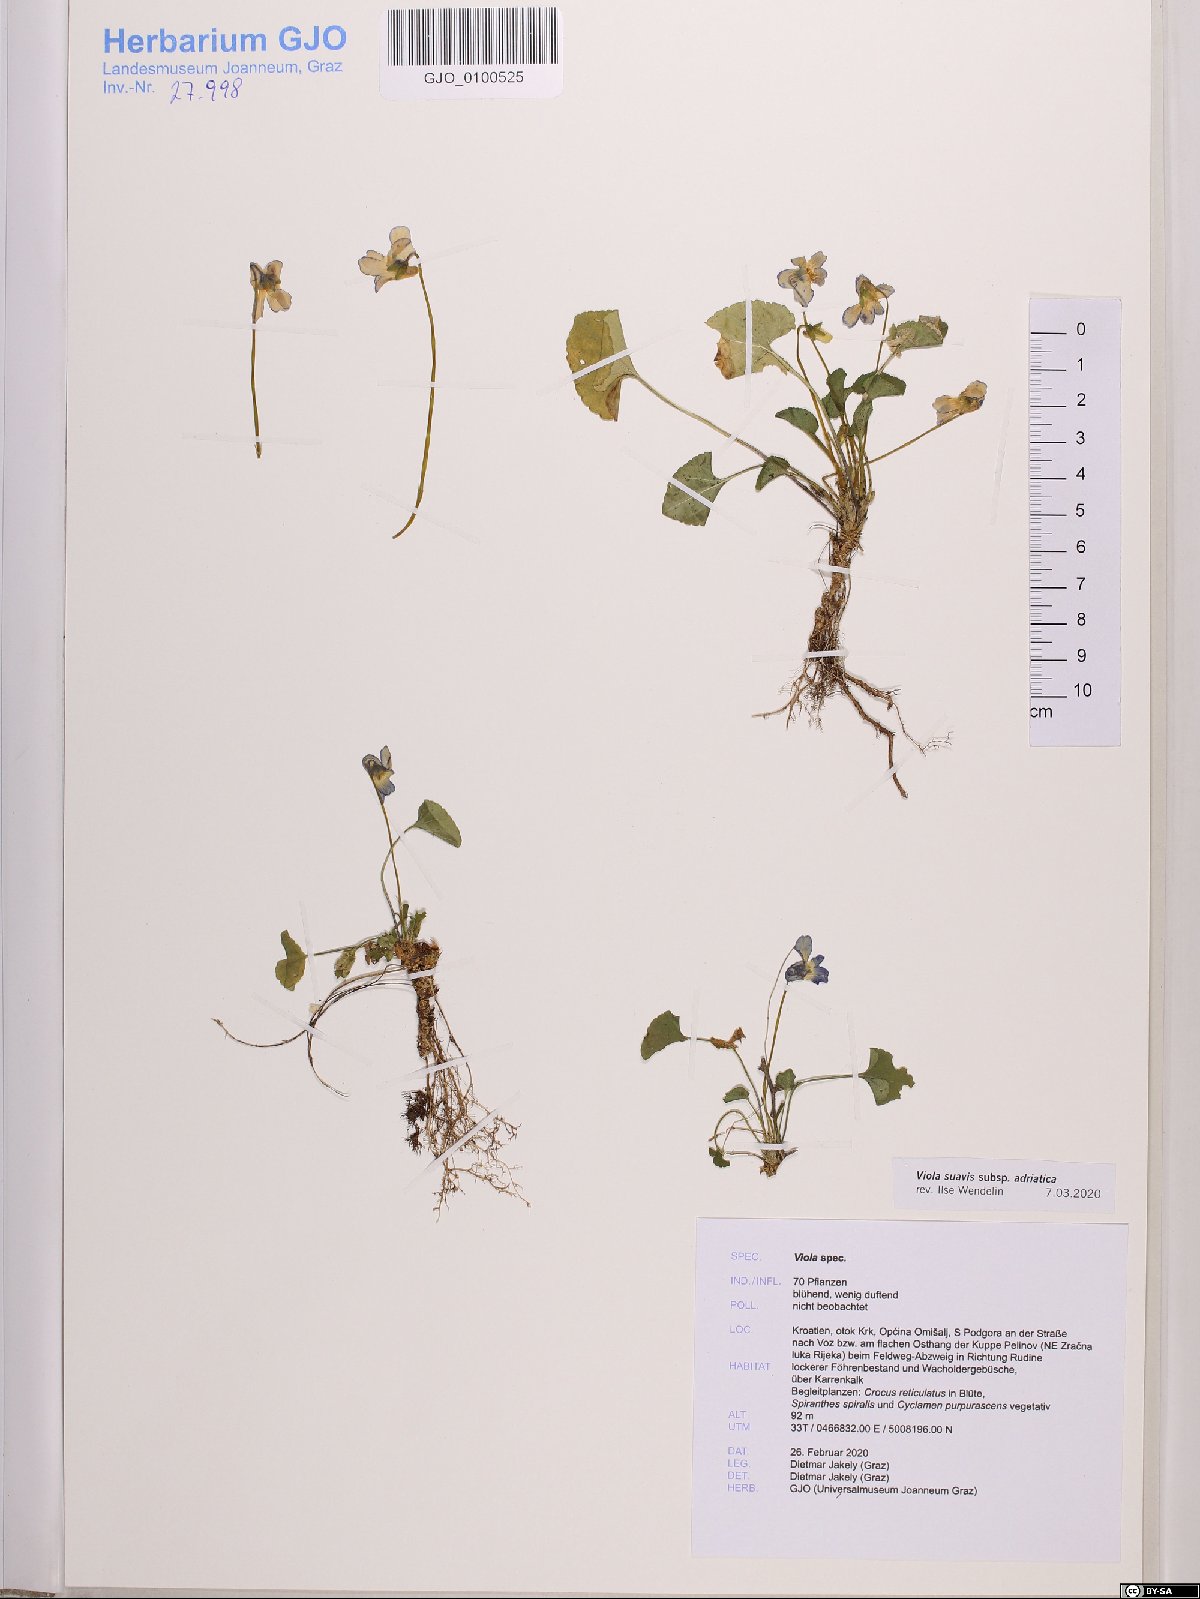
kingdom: Plantae
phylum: Tracheophyta
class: Magnoliopsida
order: Malpighiales
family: Violaceae
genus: Viola
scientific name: Viola suavis
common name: Russian violet
